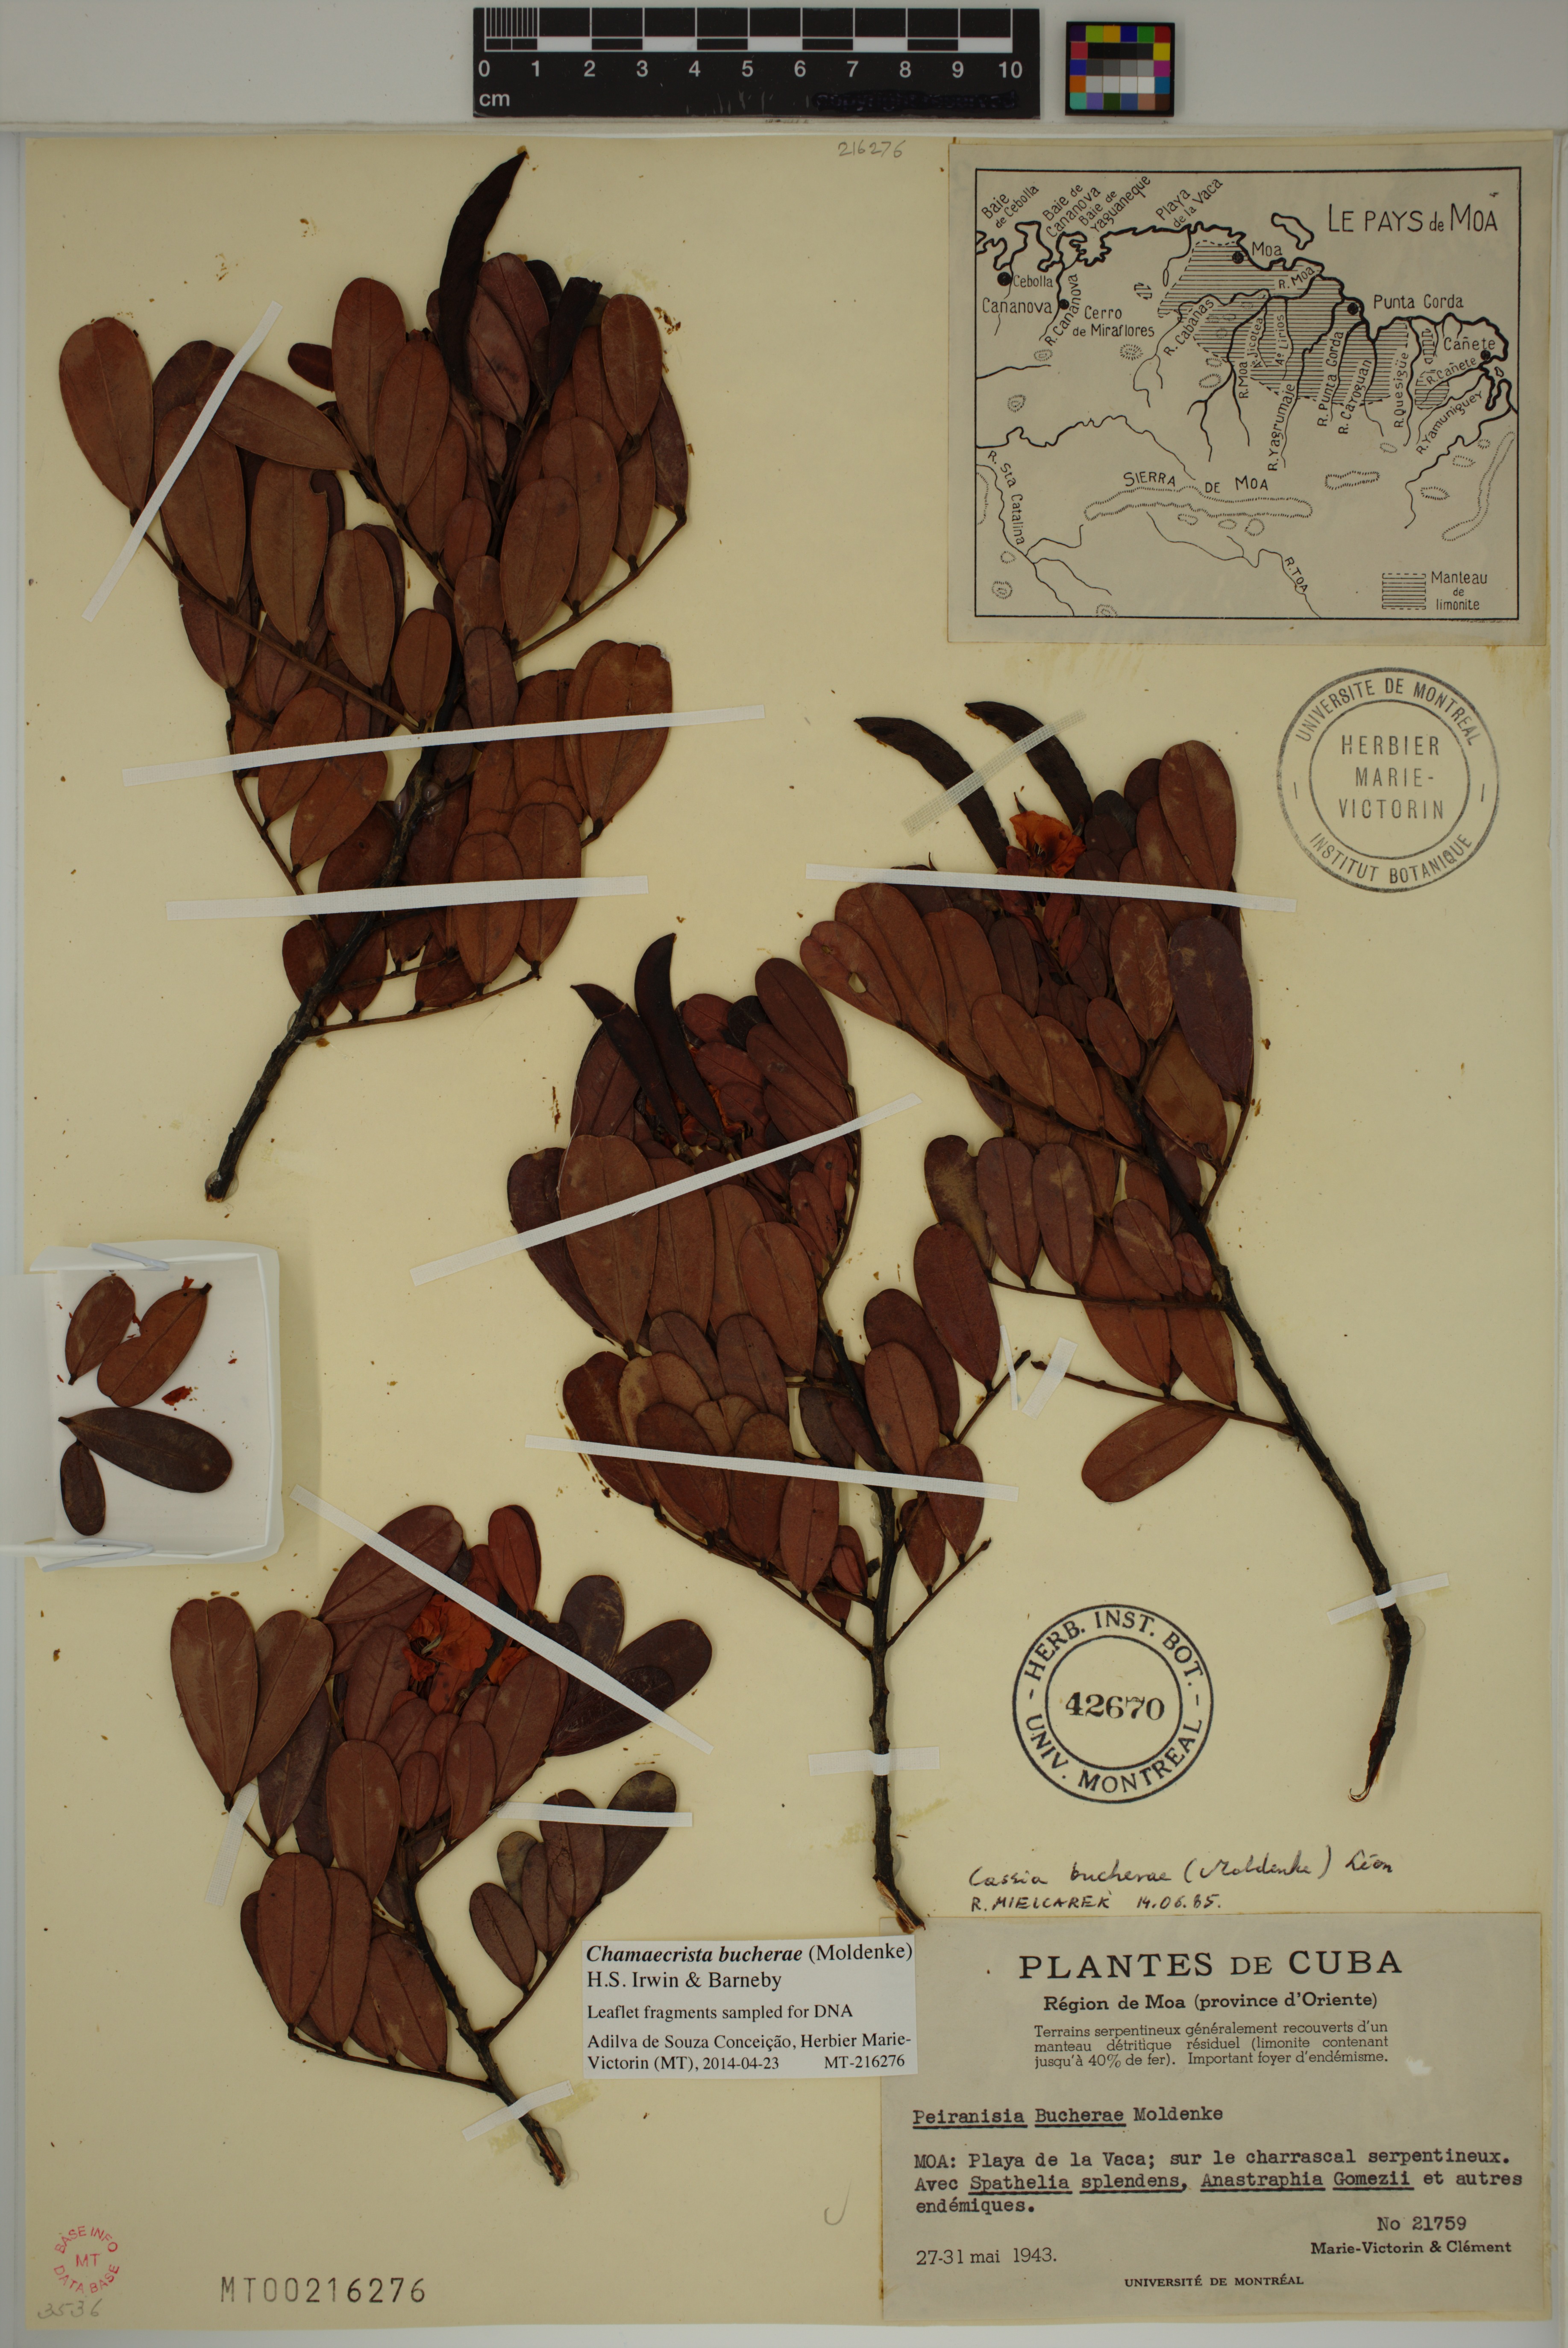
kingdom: Plantae
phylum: Tracheophyta
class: Magnoliopsida
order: Fabales
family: Fabaceae
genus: Chamaecrista
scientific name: Chamaecrista bucherae
